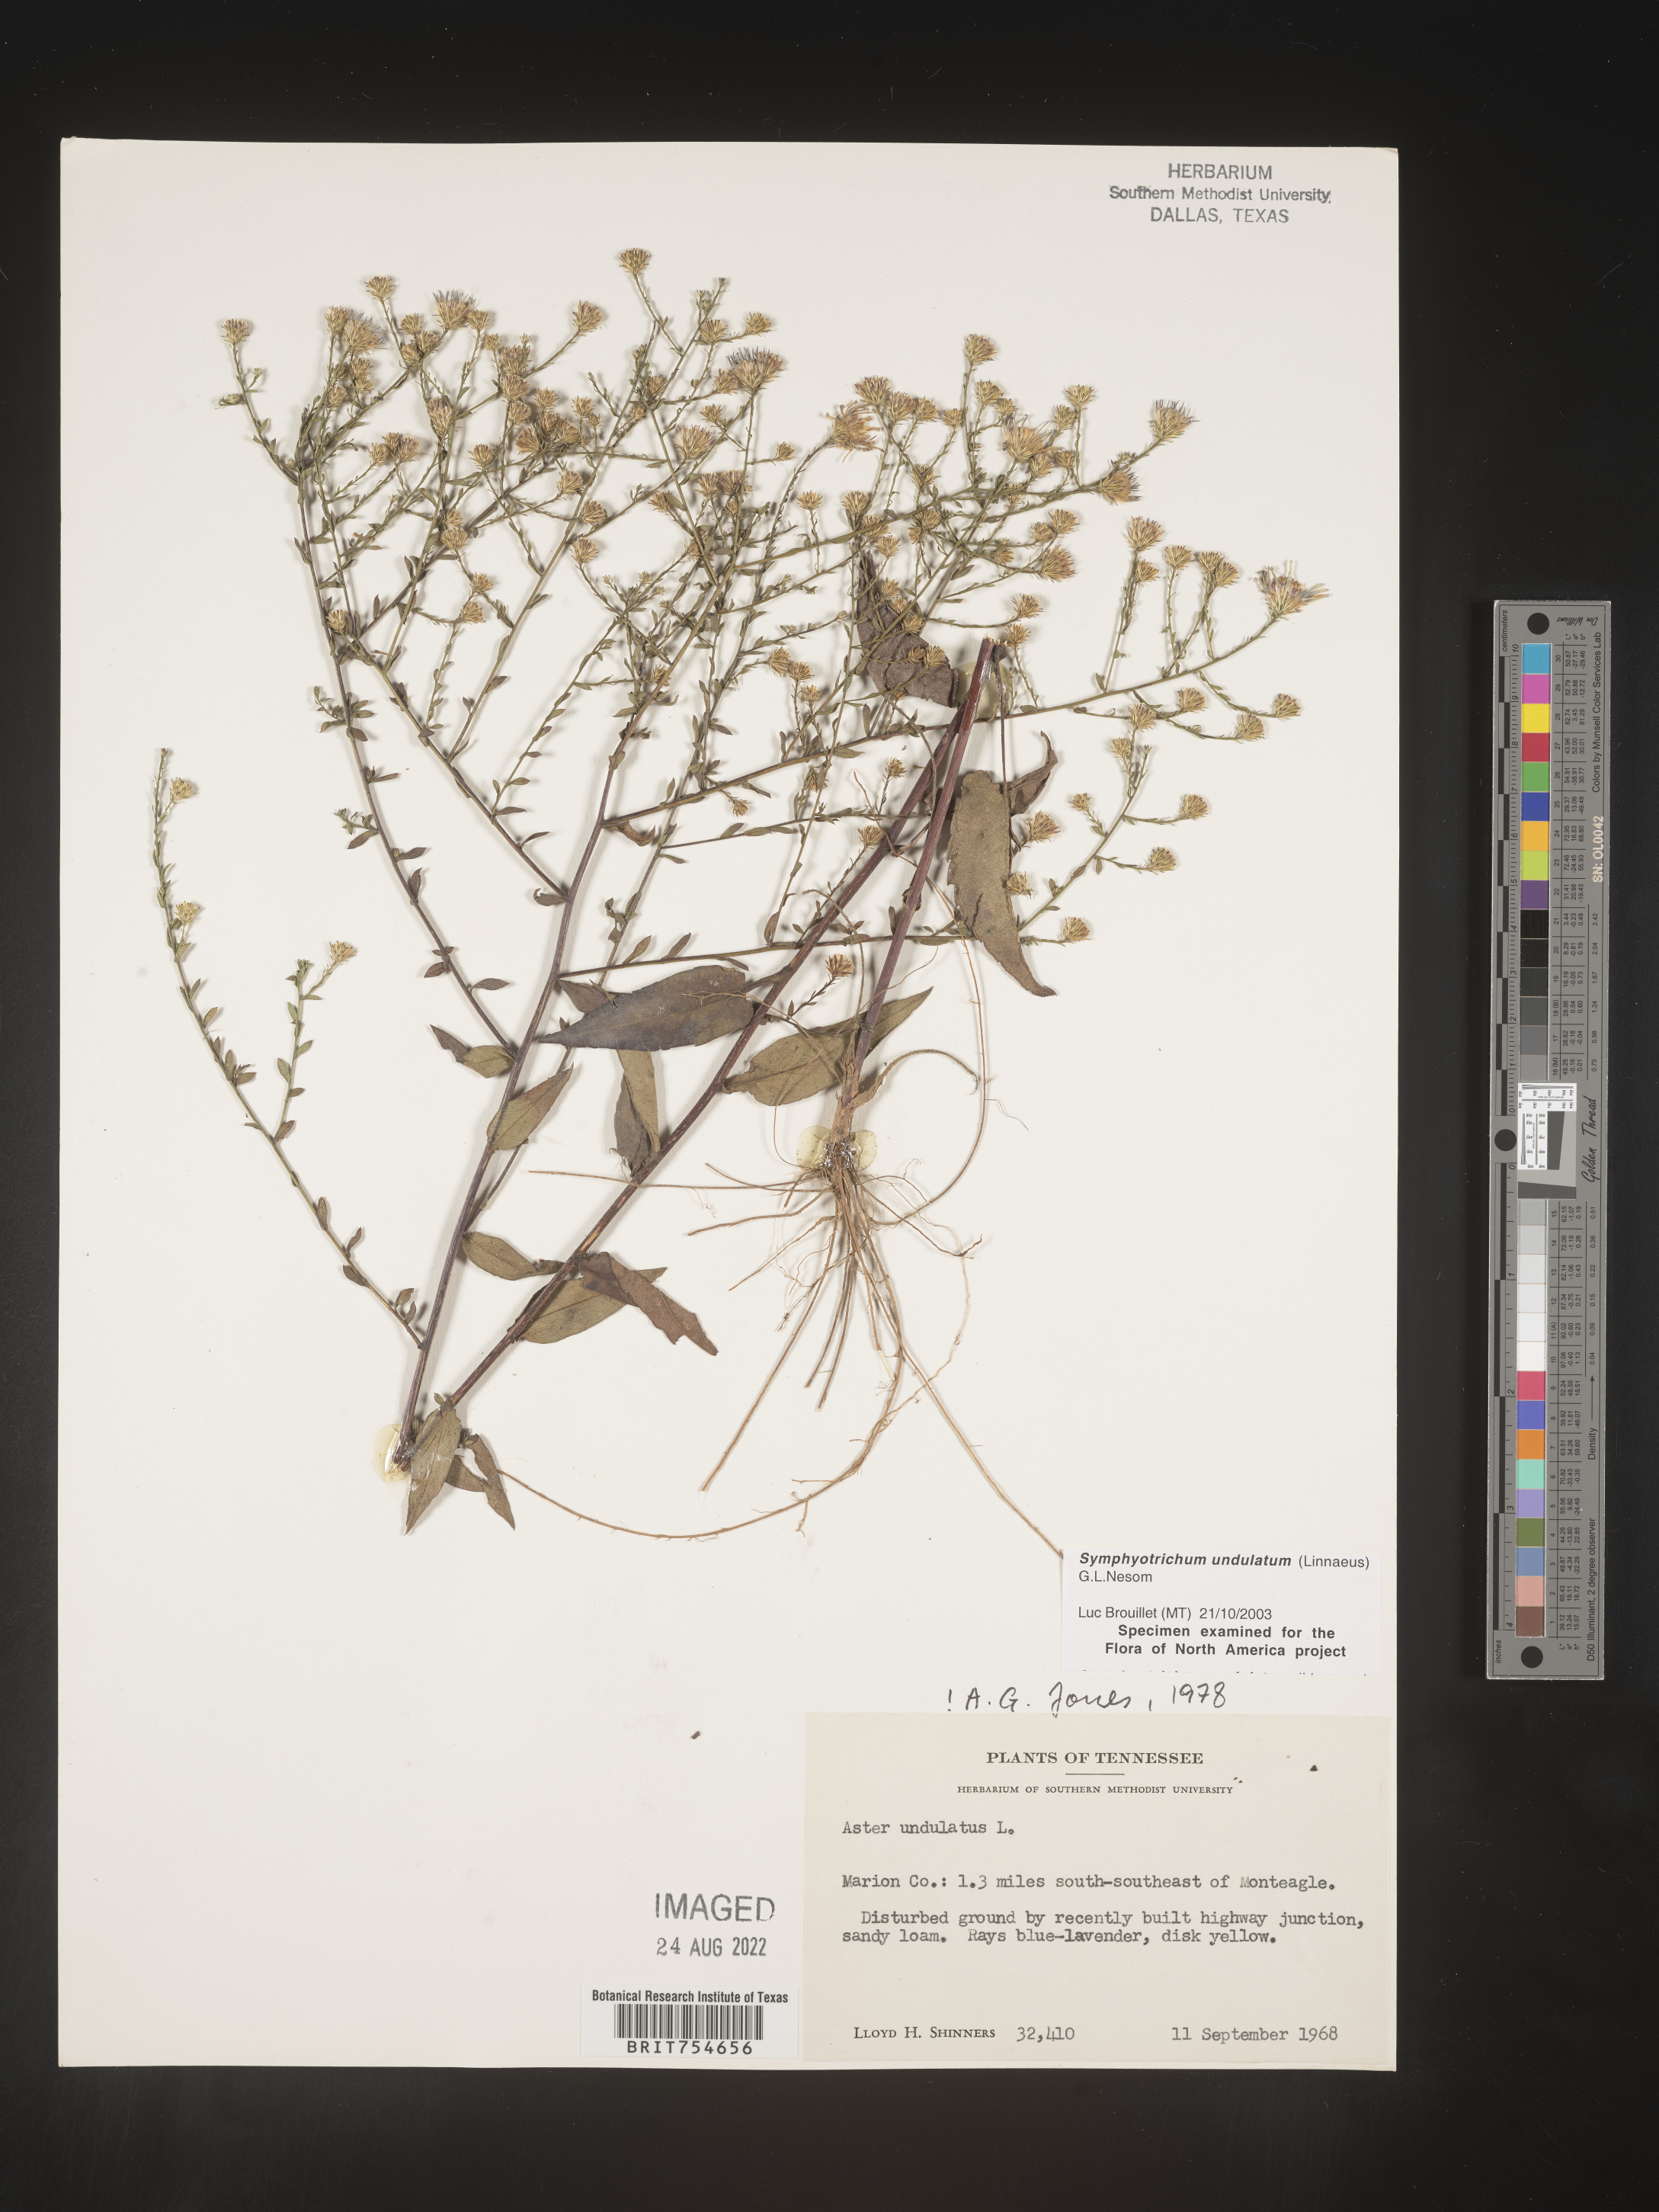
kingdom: Plantae
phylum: Tracheophyta
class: Magnoliopsida
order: Asterales
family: Asteraceae
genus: Symphyotrichum
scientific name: Symphyotrichum undulatum
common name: Clasping heart-leaf aster
